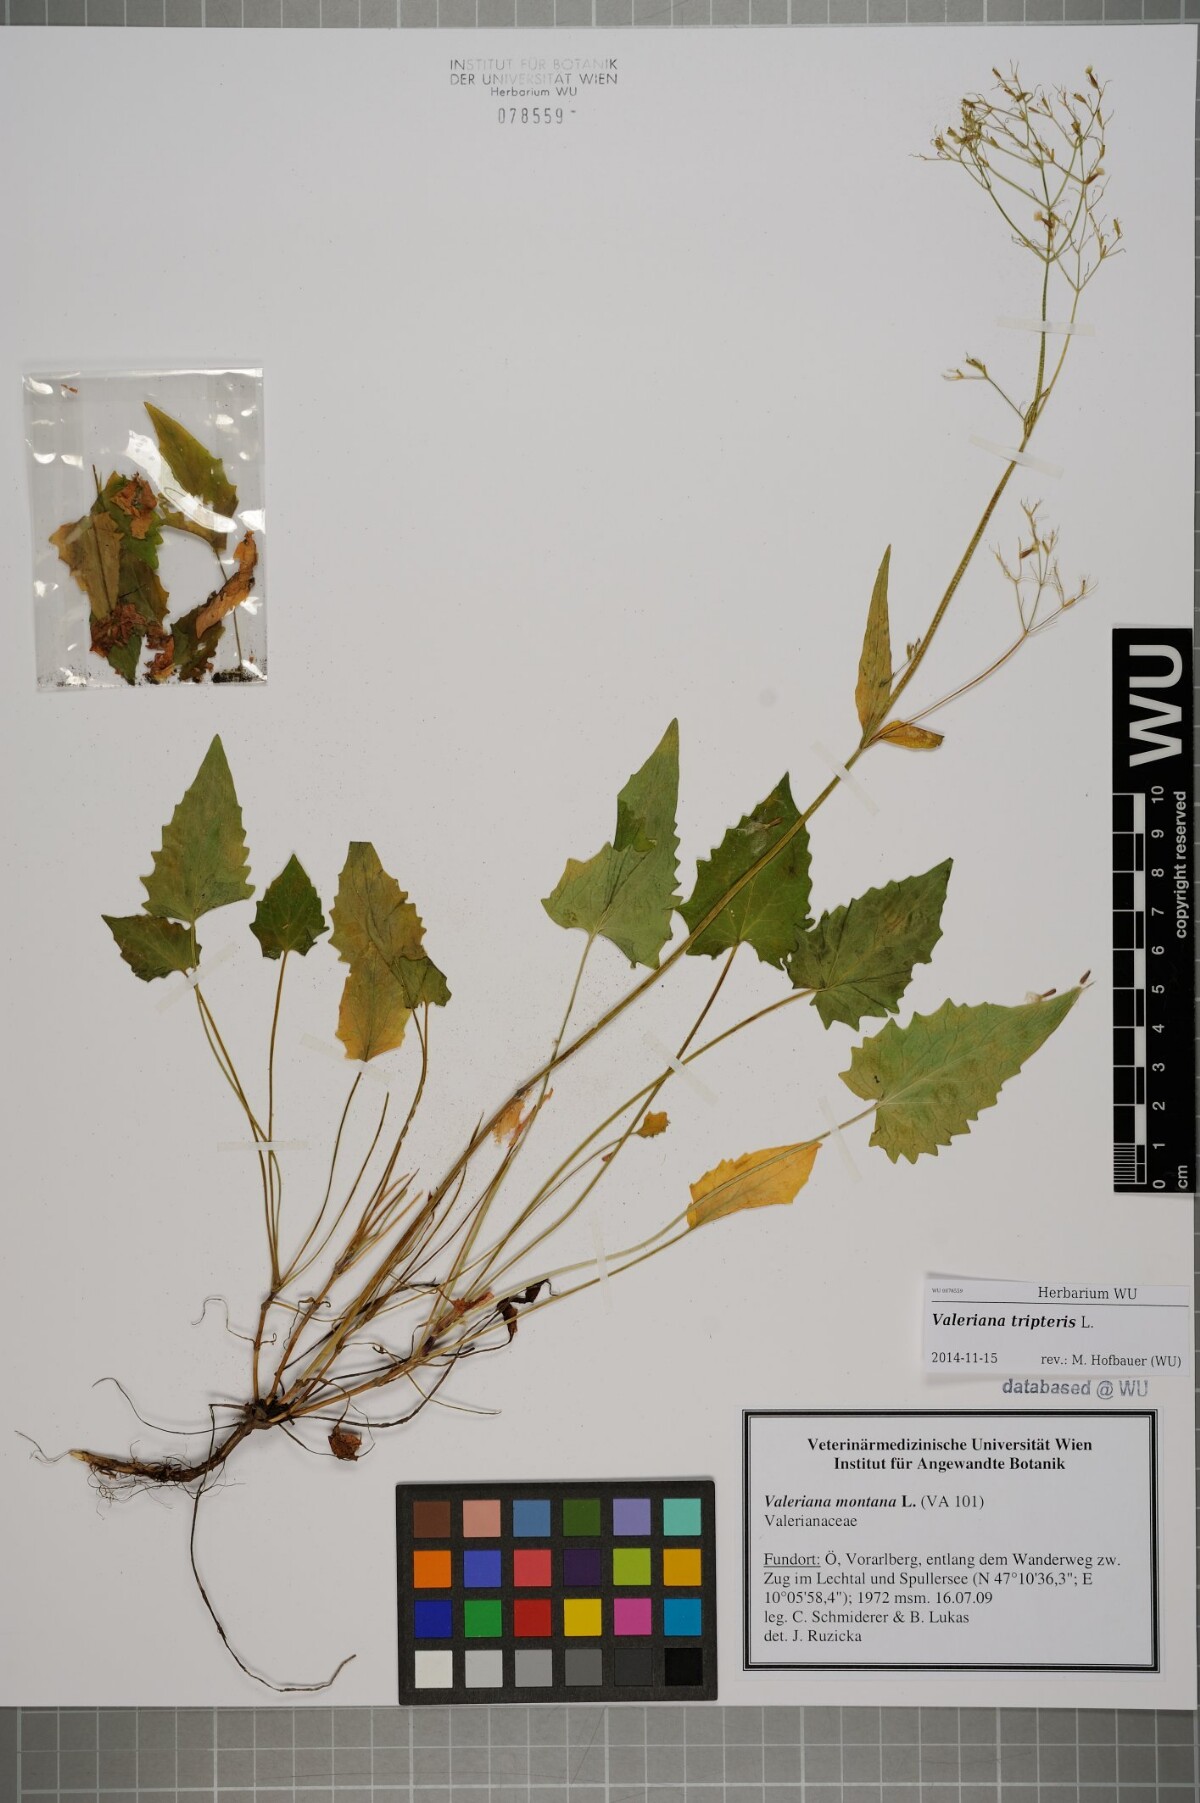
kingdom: Plantae
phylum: Tracheophyta
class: Magnoliopsida
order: Dipsacales
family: Caprifoliaceae
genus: Valeriana
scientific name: Valeriana tripteris
